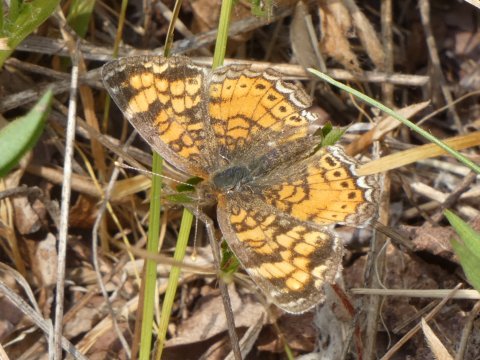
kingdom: Animalia
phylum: Arthropoda
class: Insecta
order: Lepidoptera
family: Nymphalidae
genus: Phyciodes
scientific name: Phyciodes tharos
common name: Pearl Crescent
